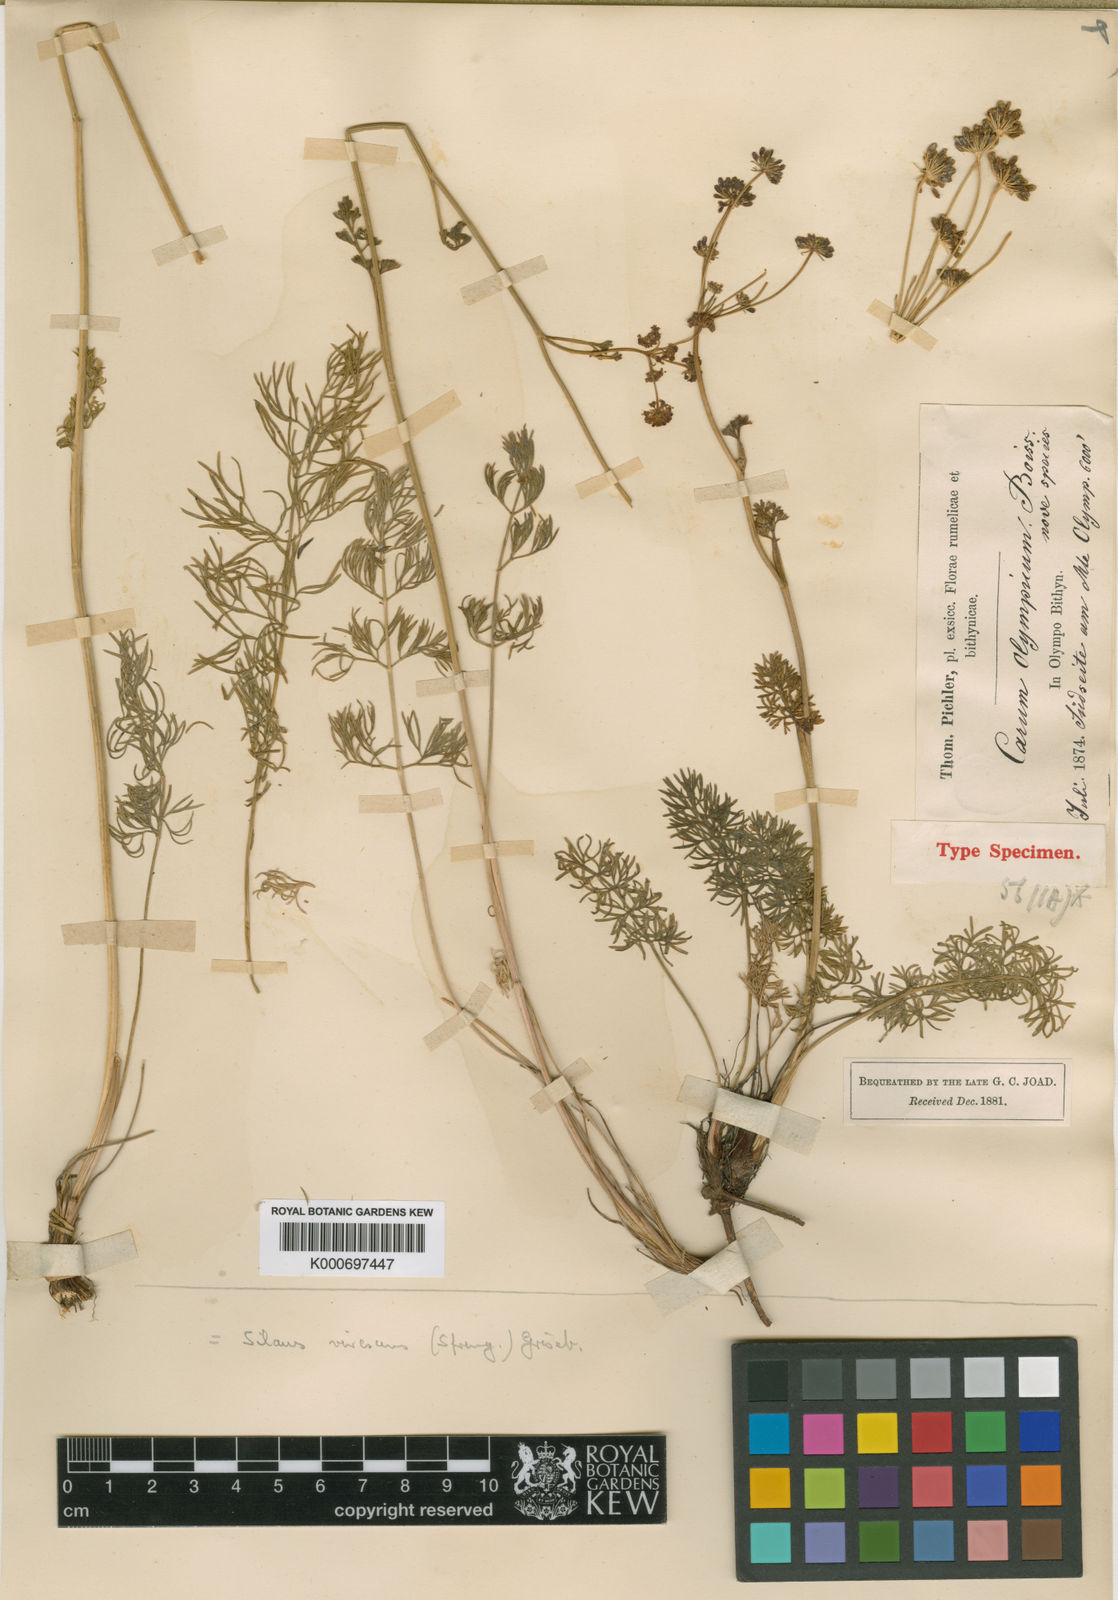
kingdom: Plantae
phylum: Tracheophyta
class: Magnoliopsida
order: Apiales
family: Apiaceae
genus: Gasparinia
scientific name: Gasparinia peucedanoides
